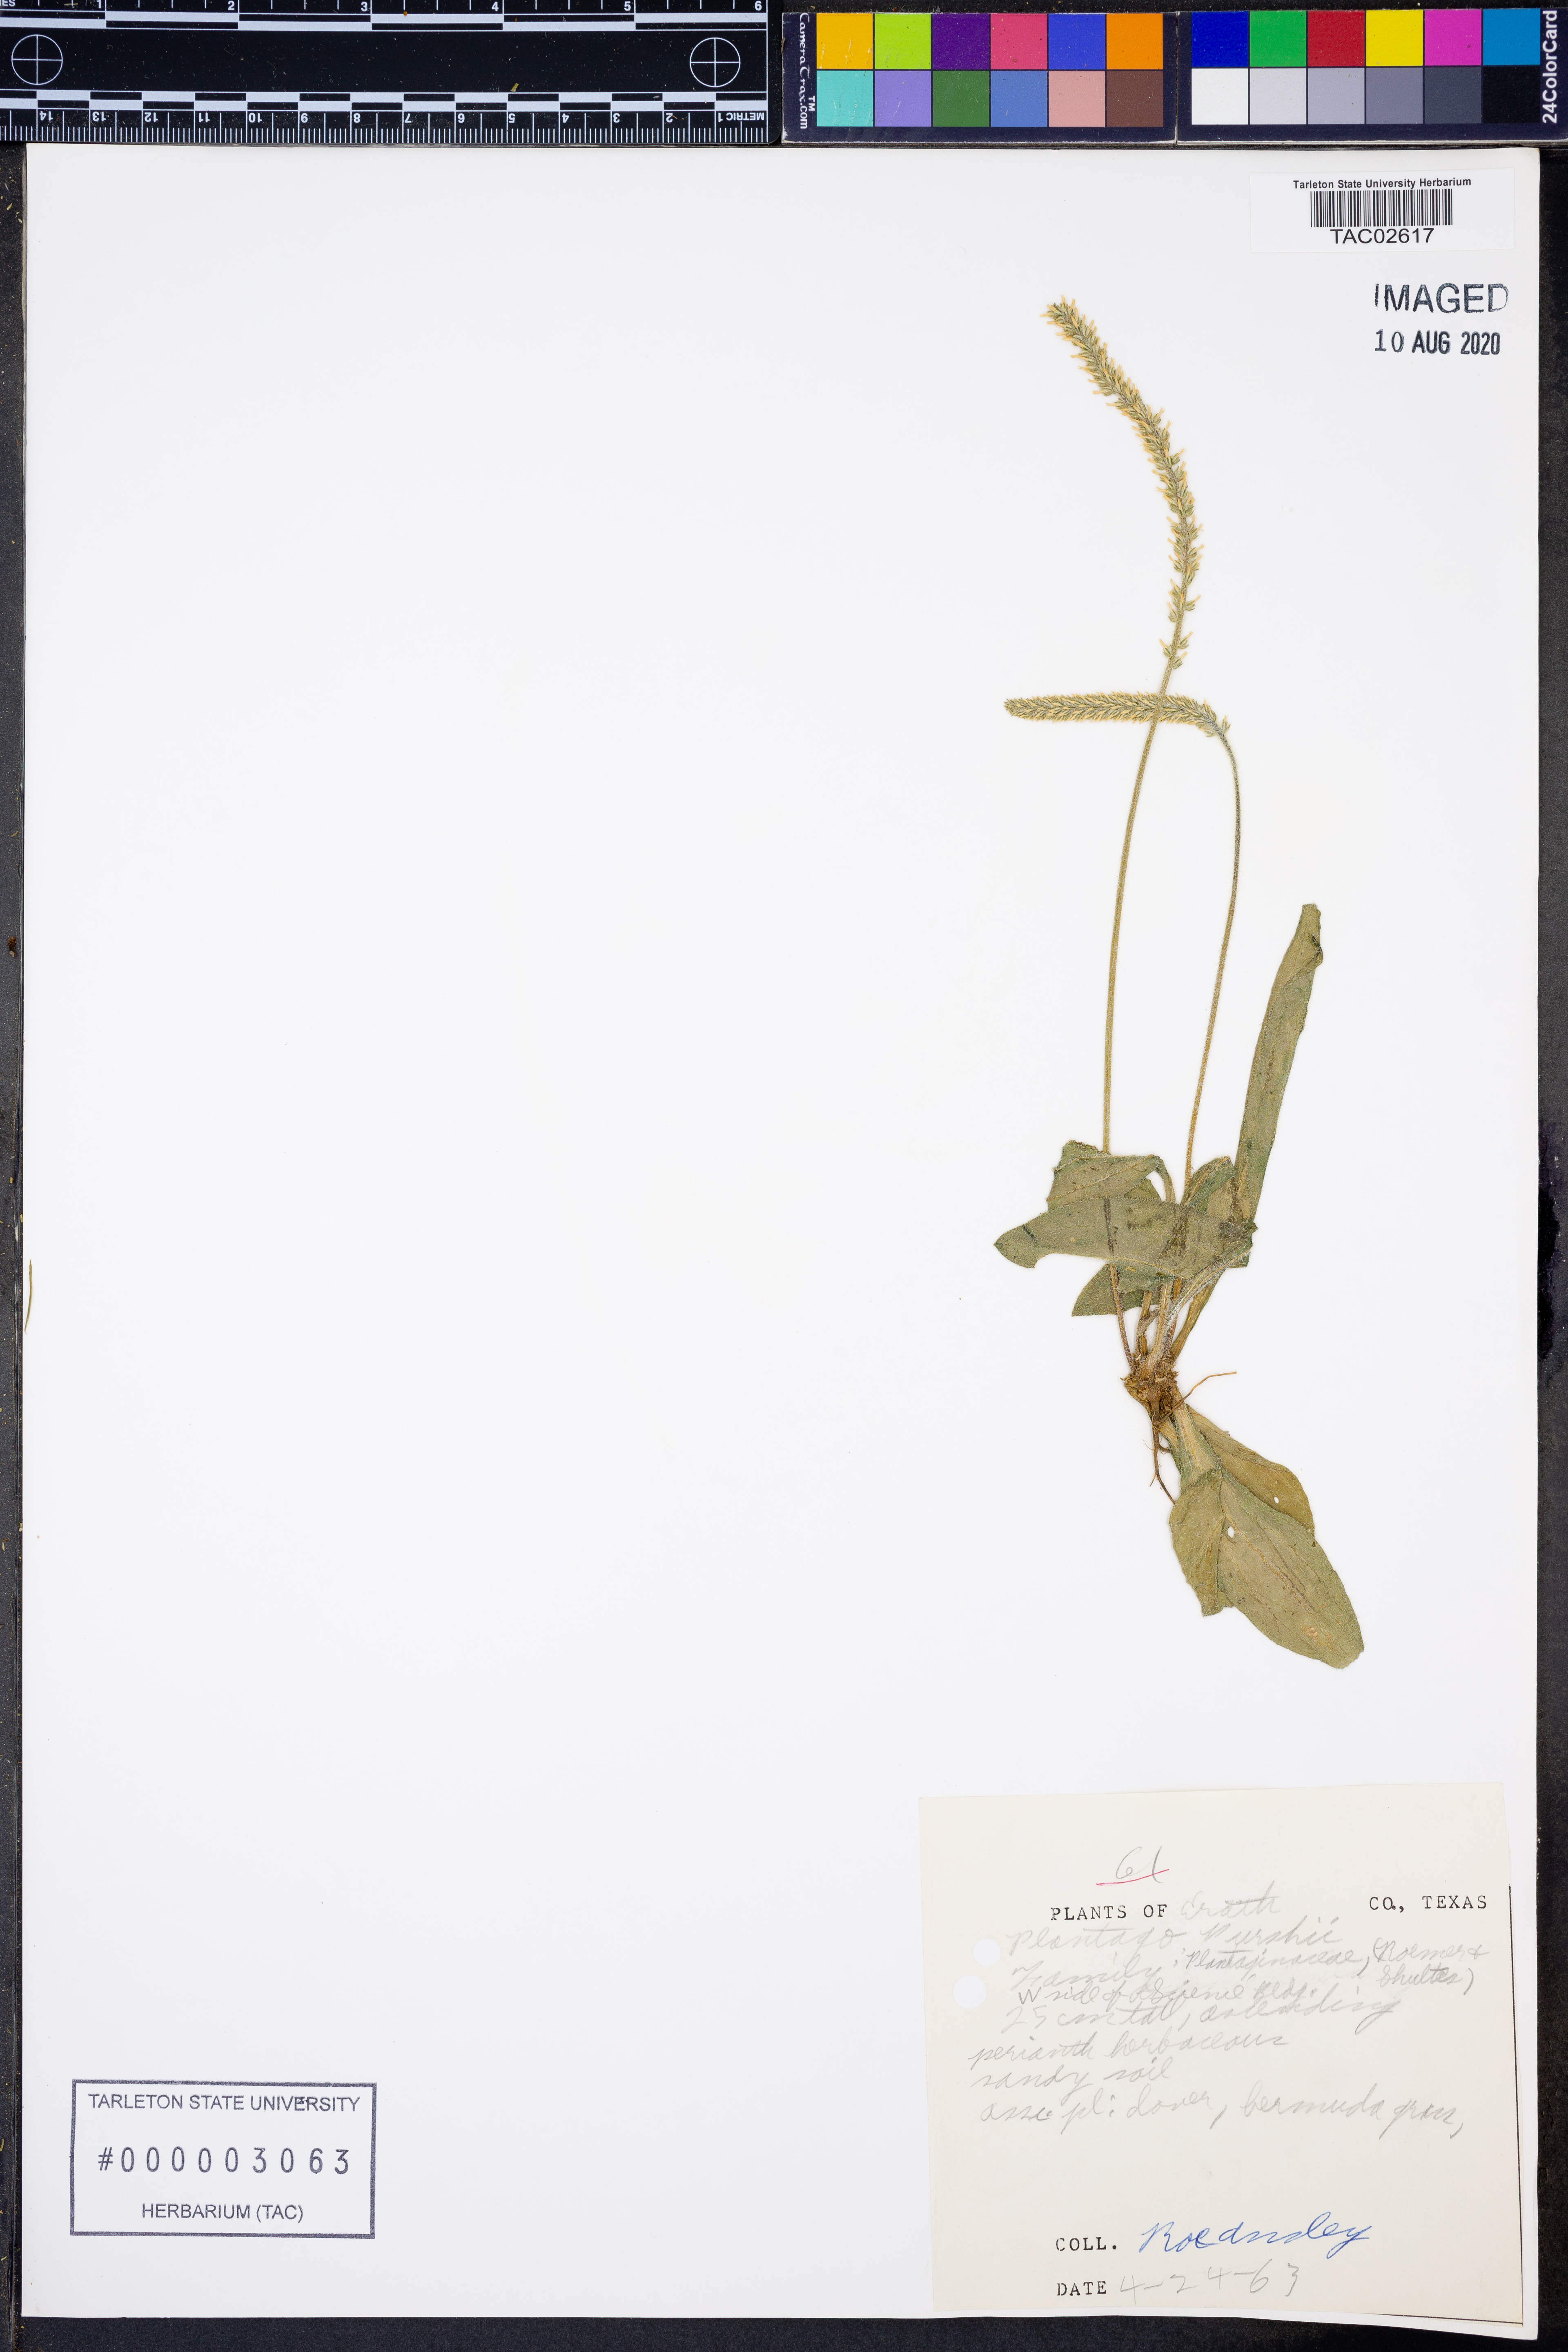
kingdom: Plantae
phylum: Tracheophyta
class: Magnoliopsida
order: Lamiales
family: Plantaginaceae
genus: Plantago
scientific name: Plantago patagonica
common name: Patagonia indian-wheat
